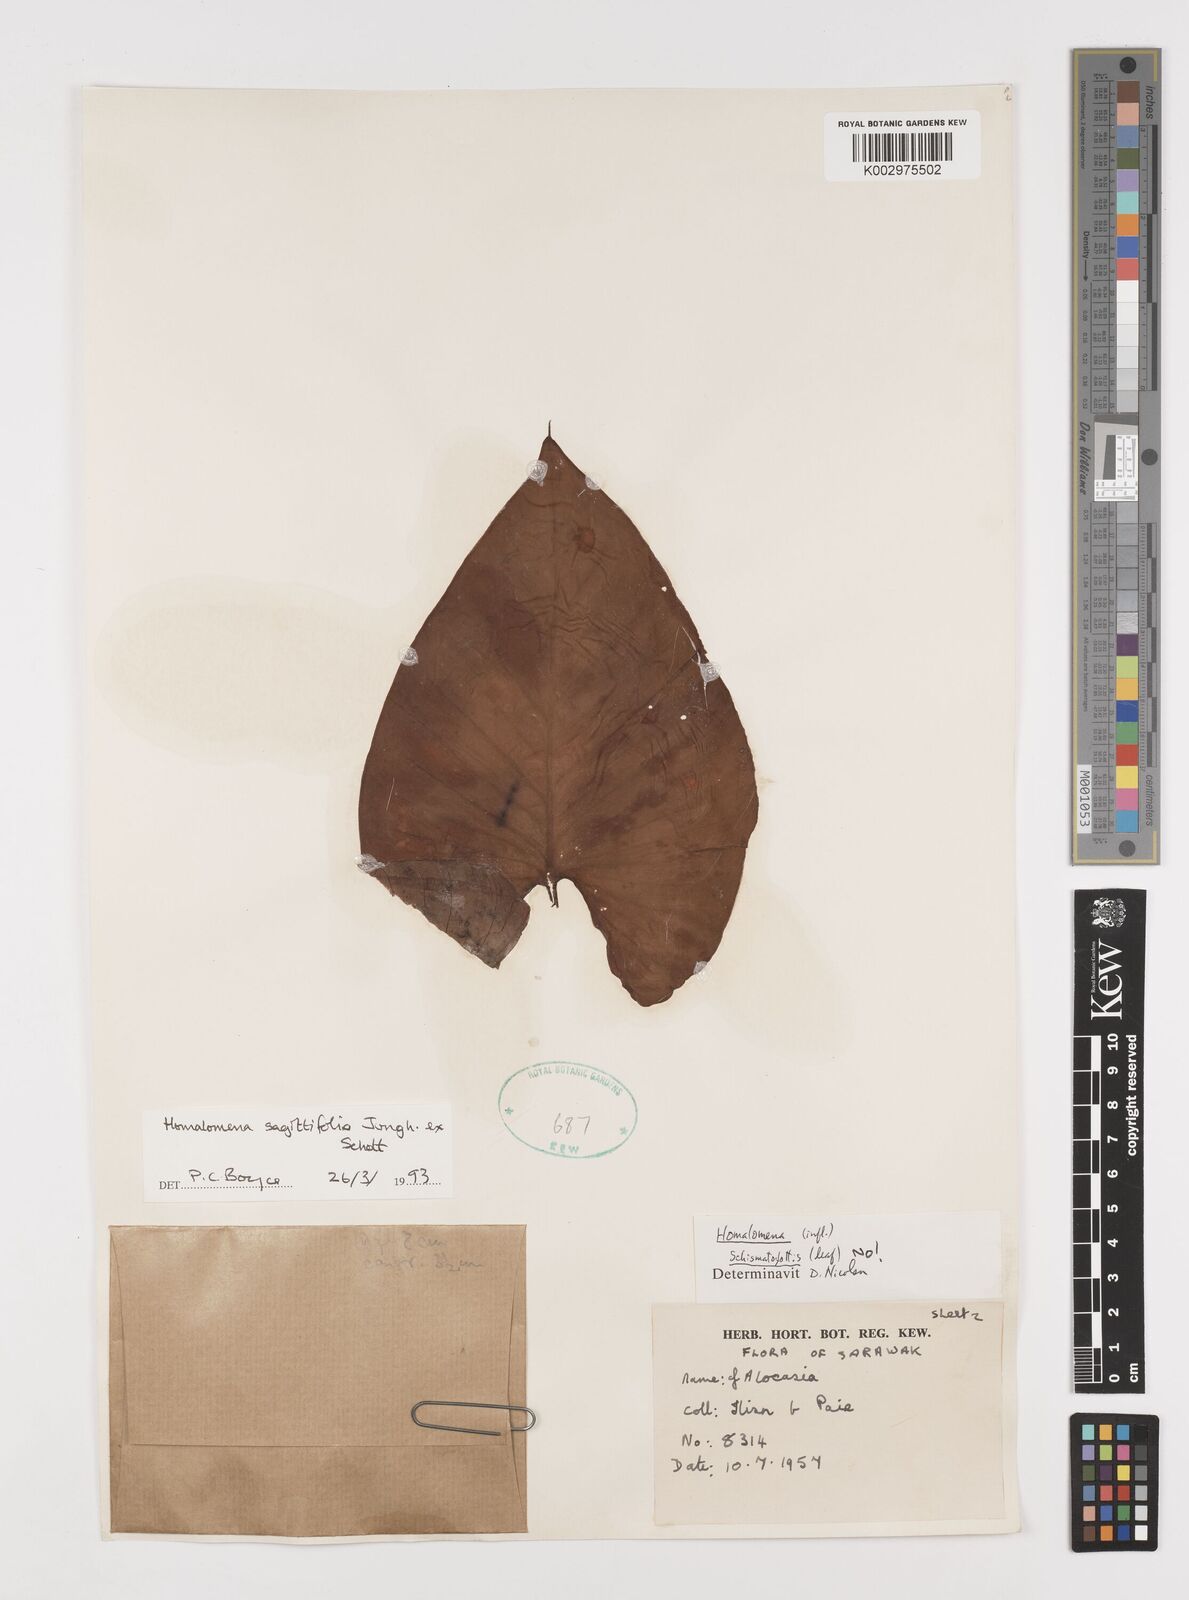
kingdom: Plantae
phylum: Tracheophyta
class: Liliopsida
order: Alismatales
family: Araceae
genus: Homalomena
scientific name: Homalomena rostrata
